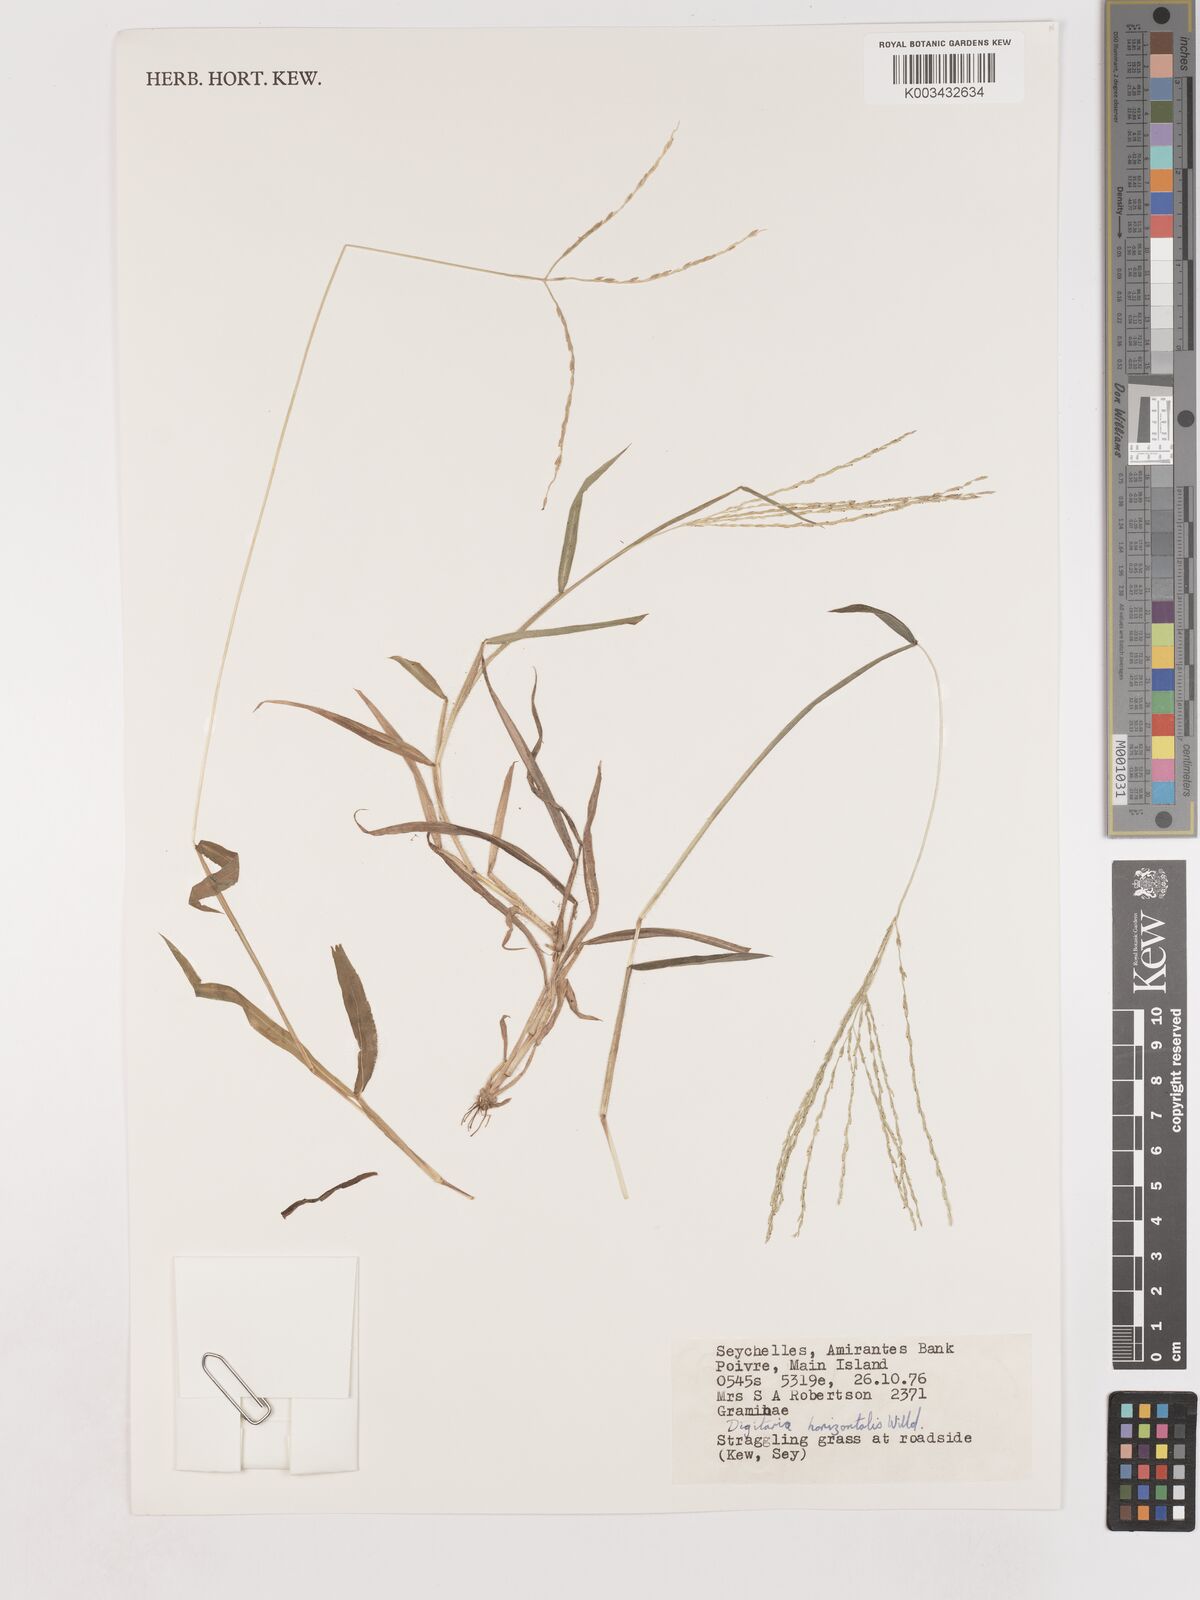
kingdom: Plantae
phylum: Tracheophyta
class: Liliopsida
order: Poales
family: Poaceae
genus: Digitaria
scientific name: Digitaria horizontalis
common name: Jamaican crabgrass
